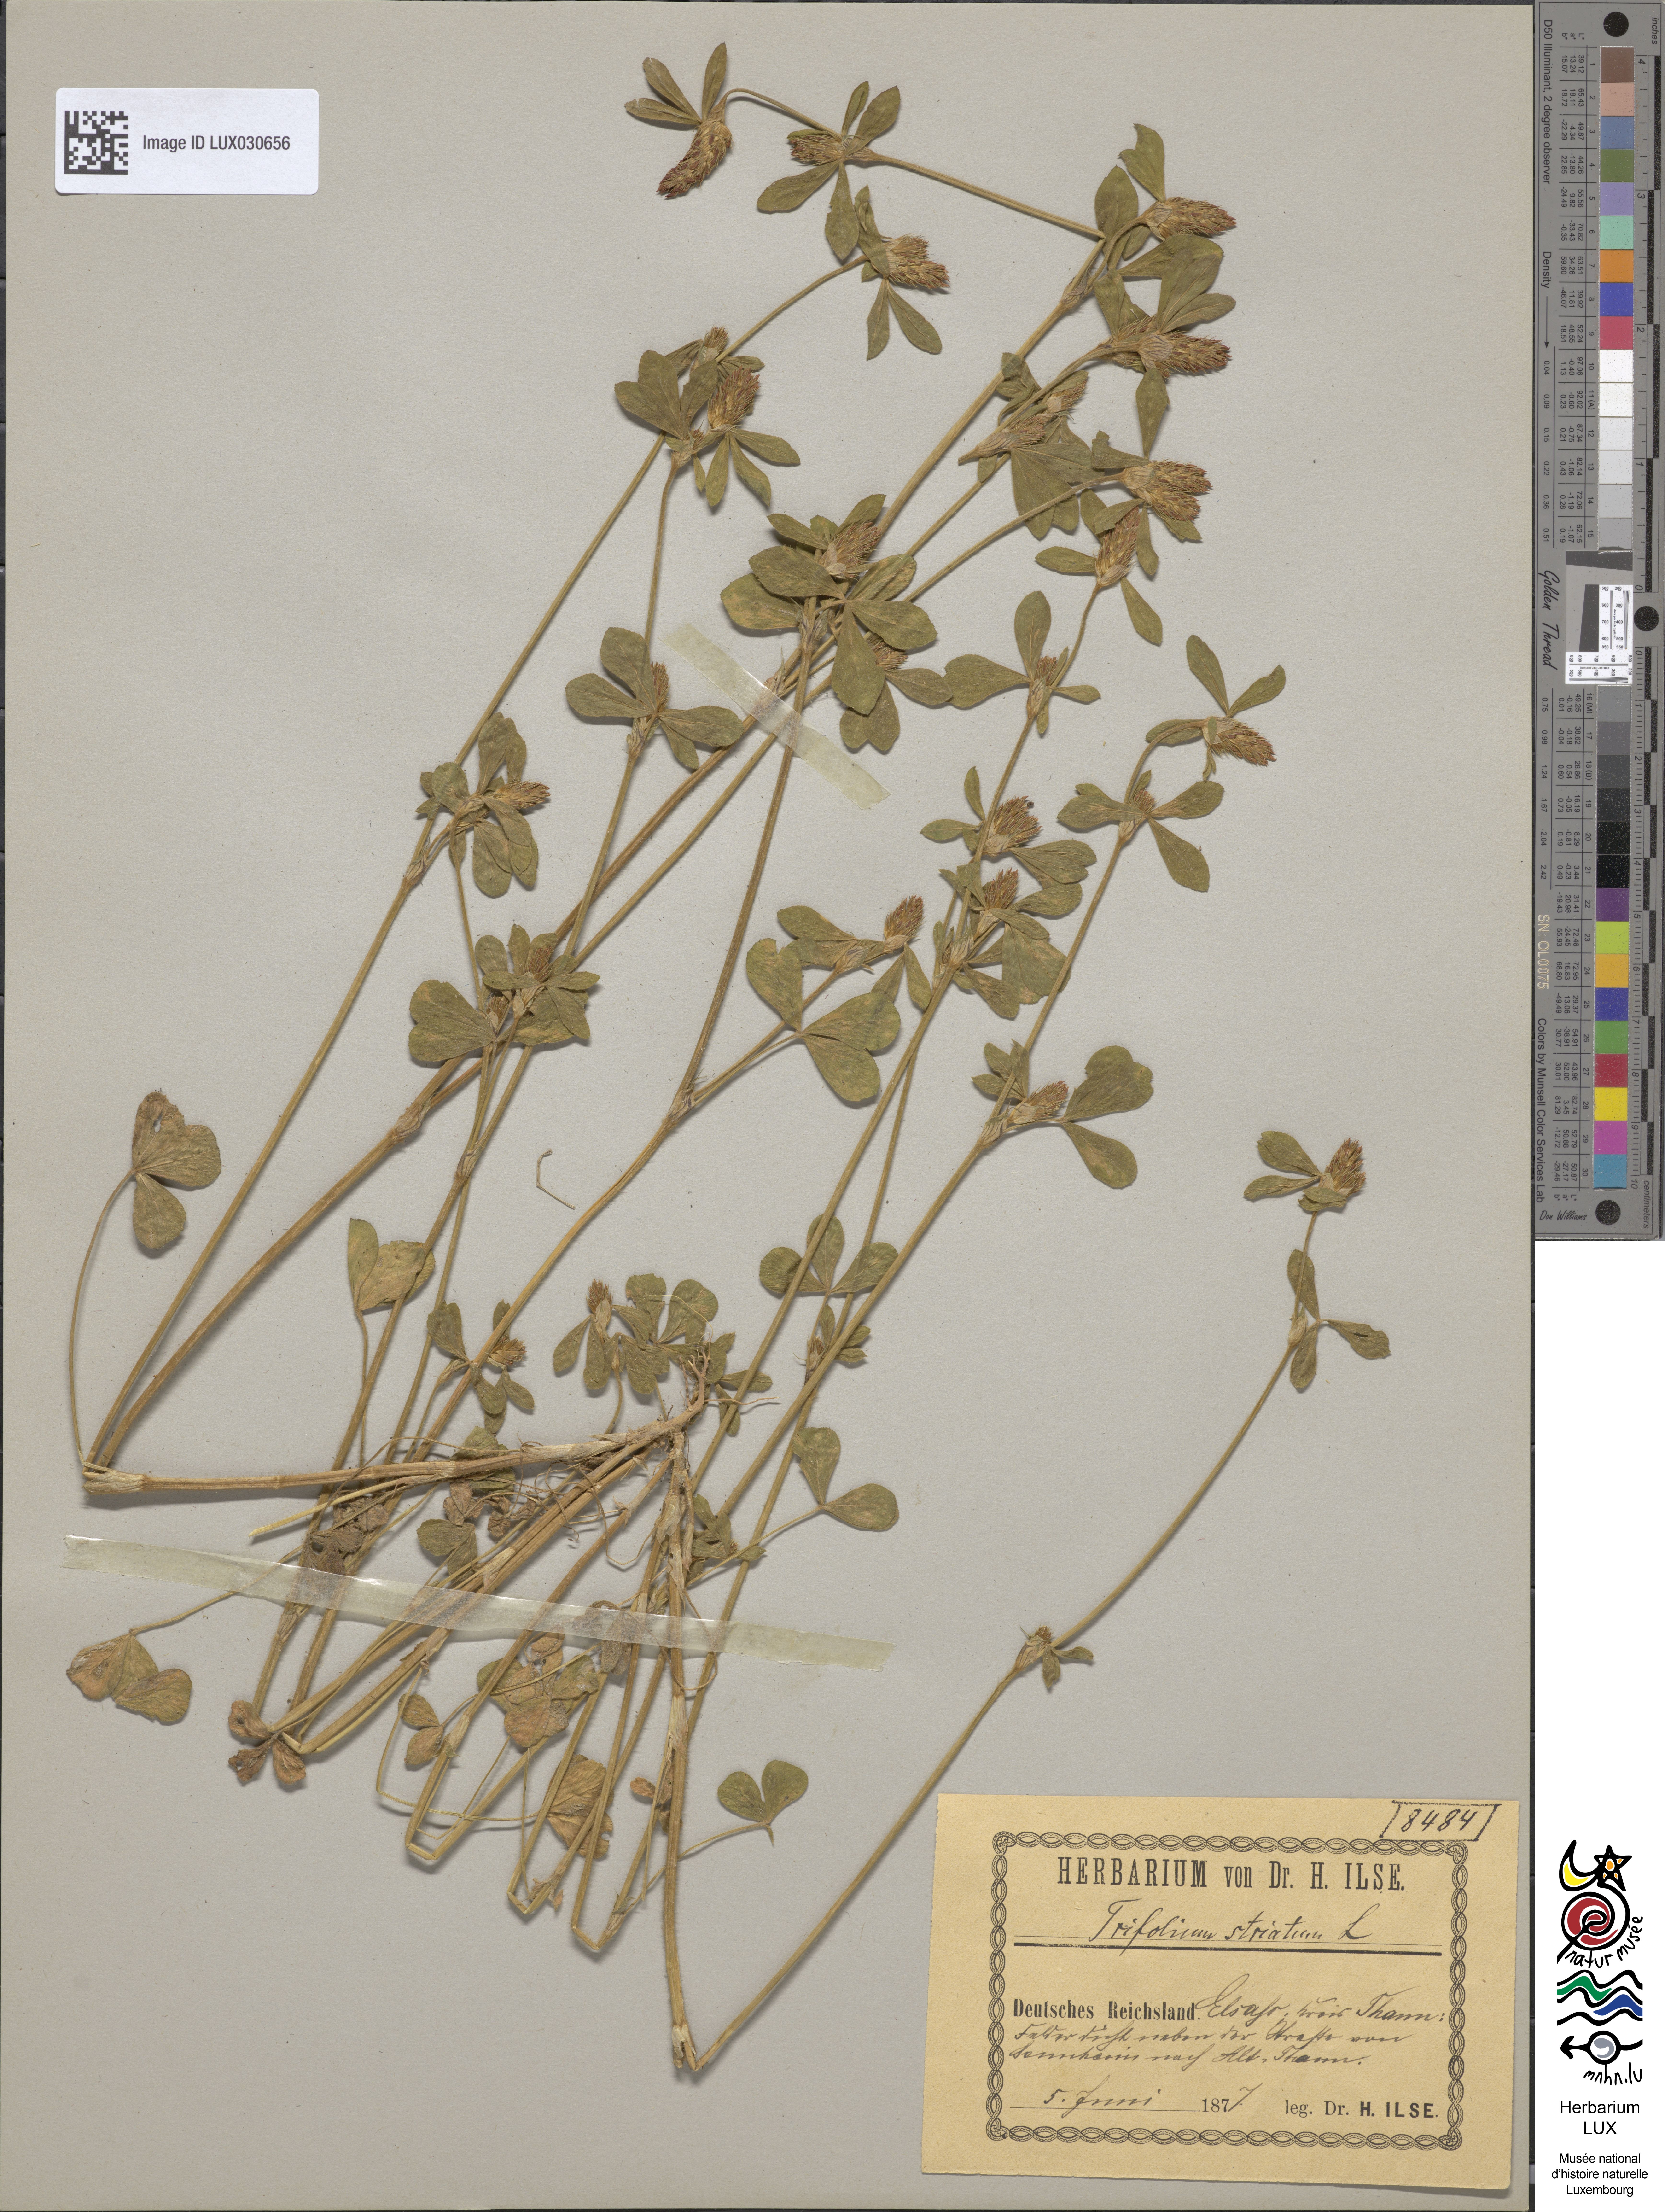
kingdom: Plantae
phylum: Tracheophyta
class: Magnoliopsida
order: Fabales
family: Fabaceae
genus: Trifolium
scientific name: Trifolium striatum
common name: Knotted clover
